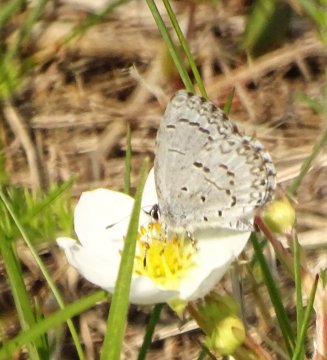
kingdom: Animalia
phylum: Arthropoda
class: Insecta
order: Lepidoptera
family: Lycaenidae
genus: Celastrina
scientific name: Celastrina lucia
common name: Northern Spring Azure
